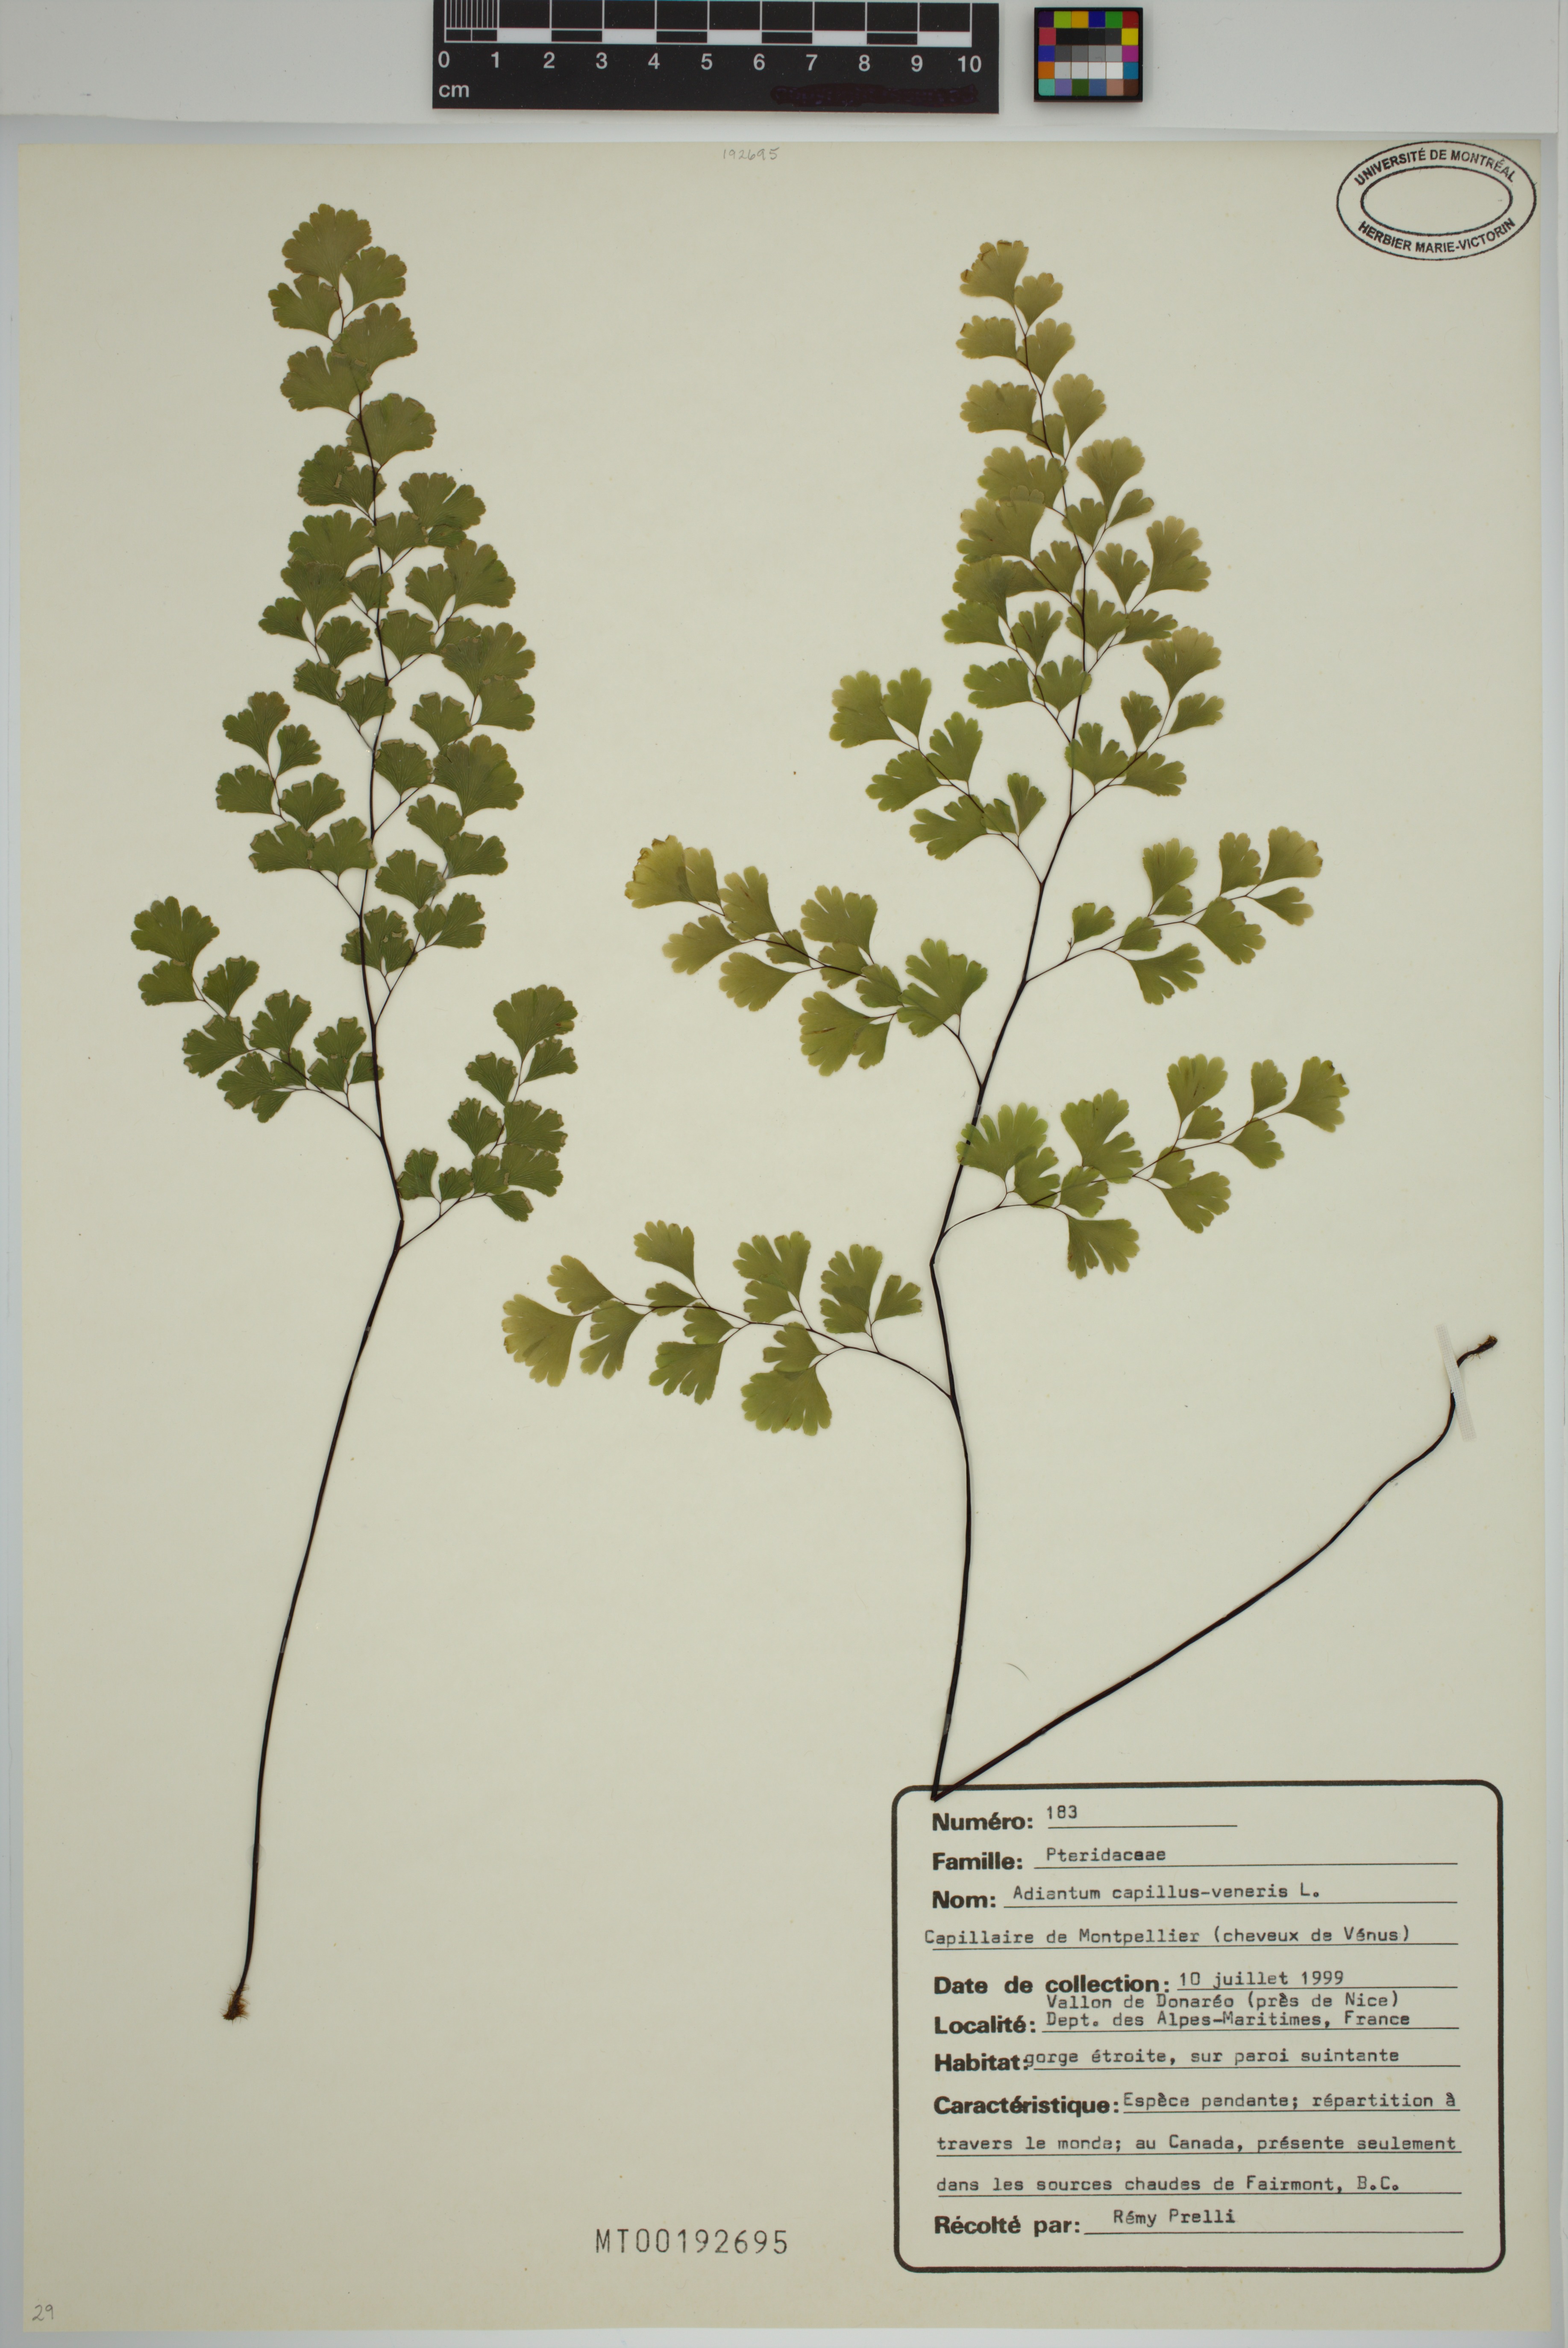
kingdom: Plantae
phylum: Tracheophyta
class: Polypodiopsida
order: Polypodiales
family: Pteridaceae
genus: Adiantum
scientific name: Adiantum capillus-veneris
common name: Maidenhair fern
